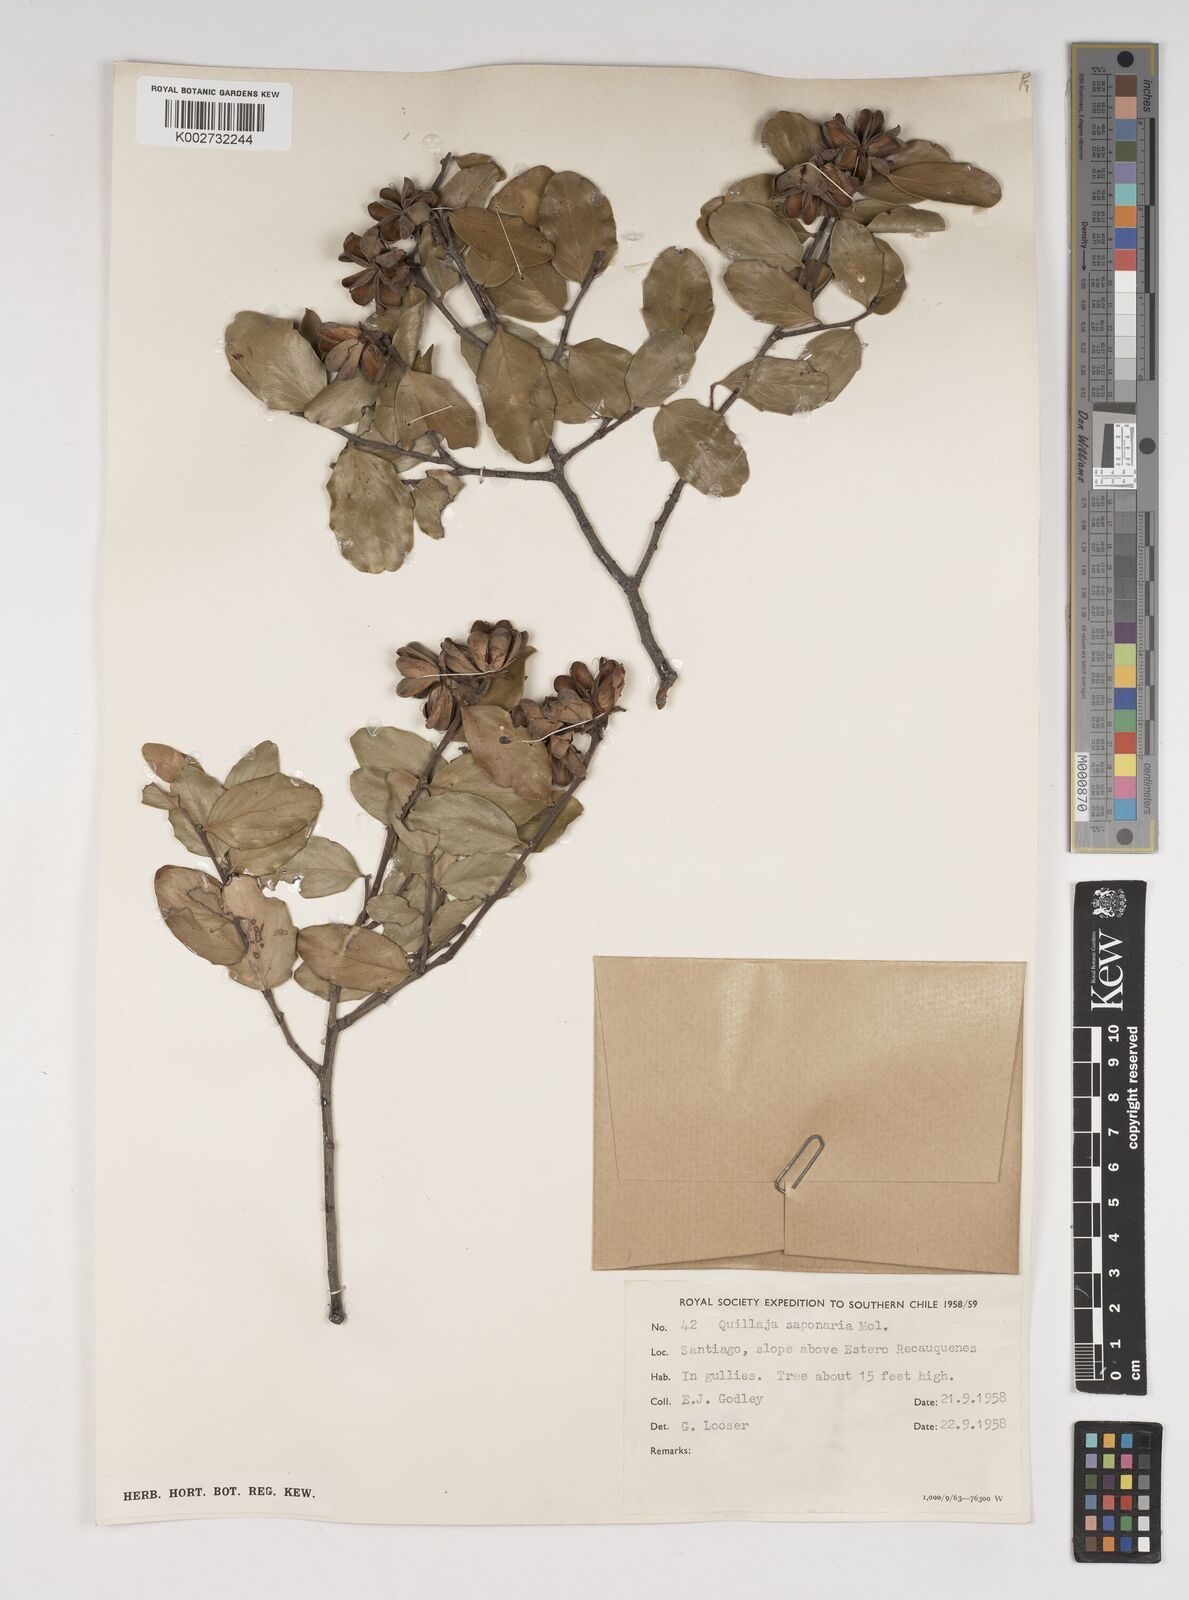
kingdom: Plantae
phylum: Tracheophyta
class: Magnoliopsida
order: Fabales
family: Quillajaceae
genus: Quillaja
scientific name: Quillaja saponaria
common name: Murillo's-bark
